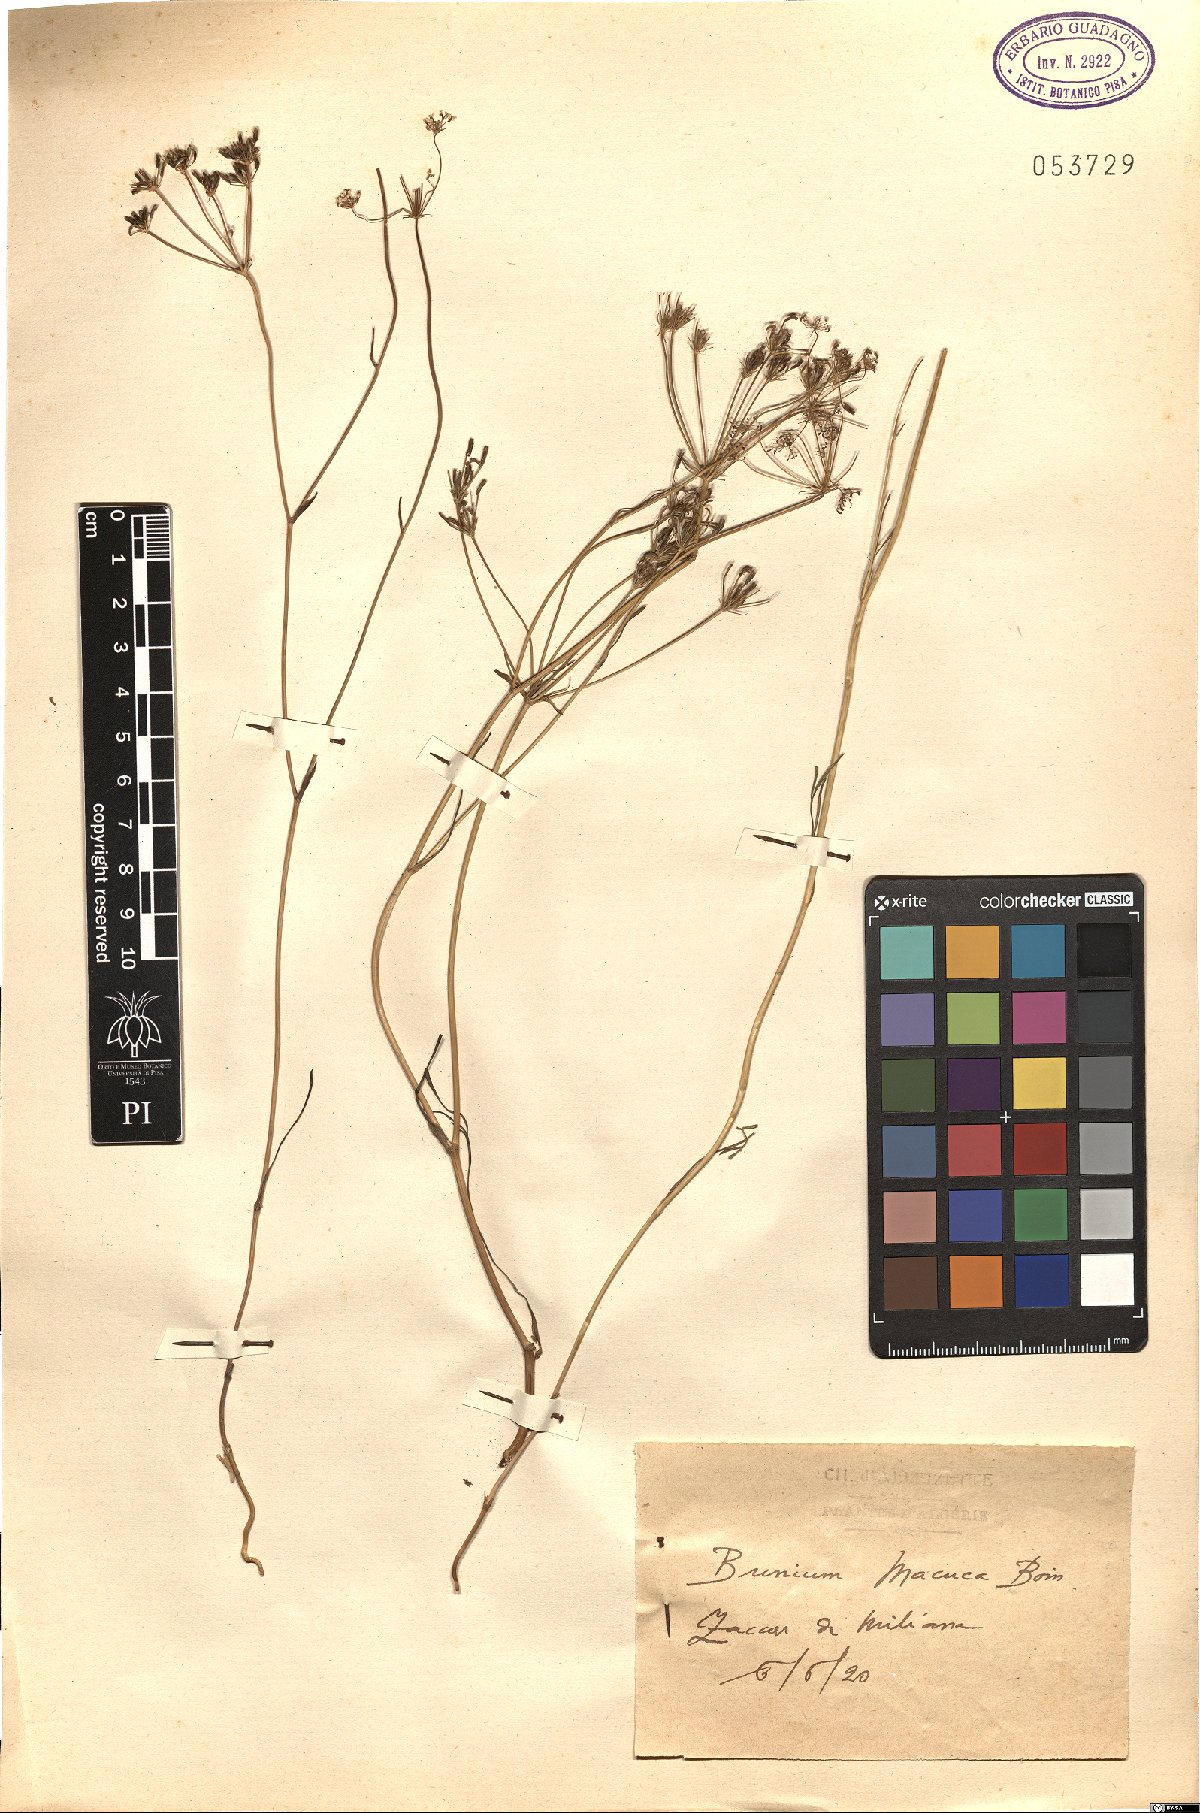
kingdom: Plantae
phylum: Tracheophyta
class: Magnoliopsida
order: Apiales
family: Apiaceae
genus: Bunium
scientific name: Bunium macuca
